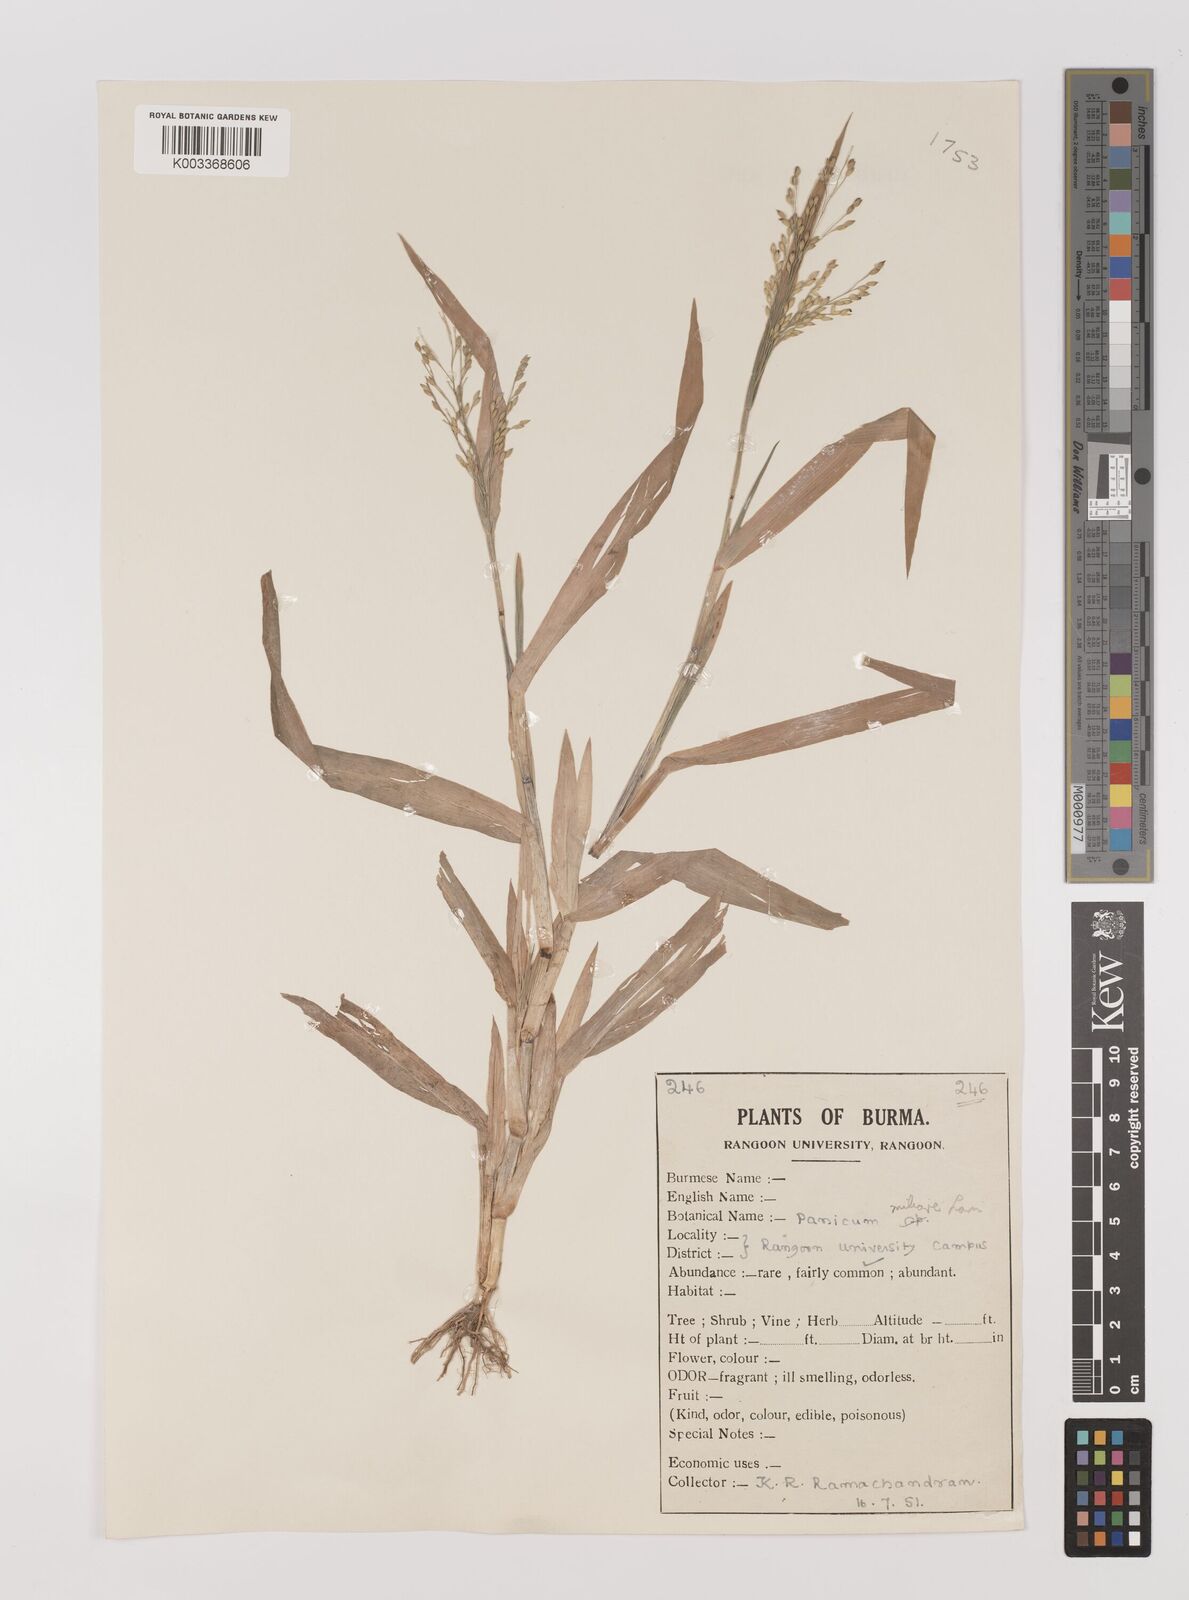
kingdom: Plantae
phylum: Tracheophyta
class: Liliopsida
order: Poales
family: Poaceae
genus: Panicum
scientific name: Panicum sumatrense
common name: Little millet
